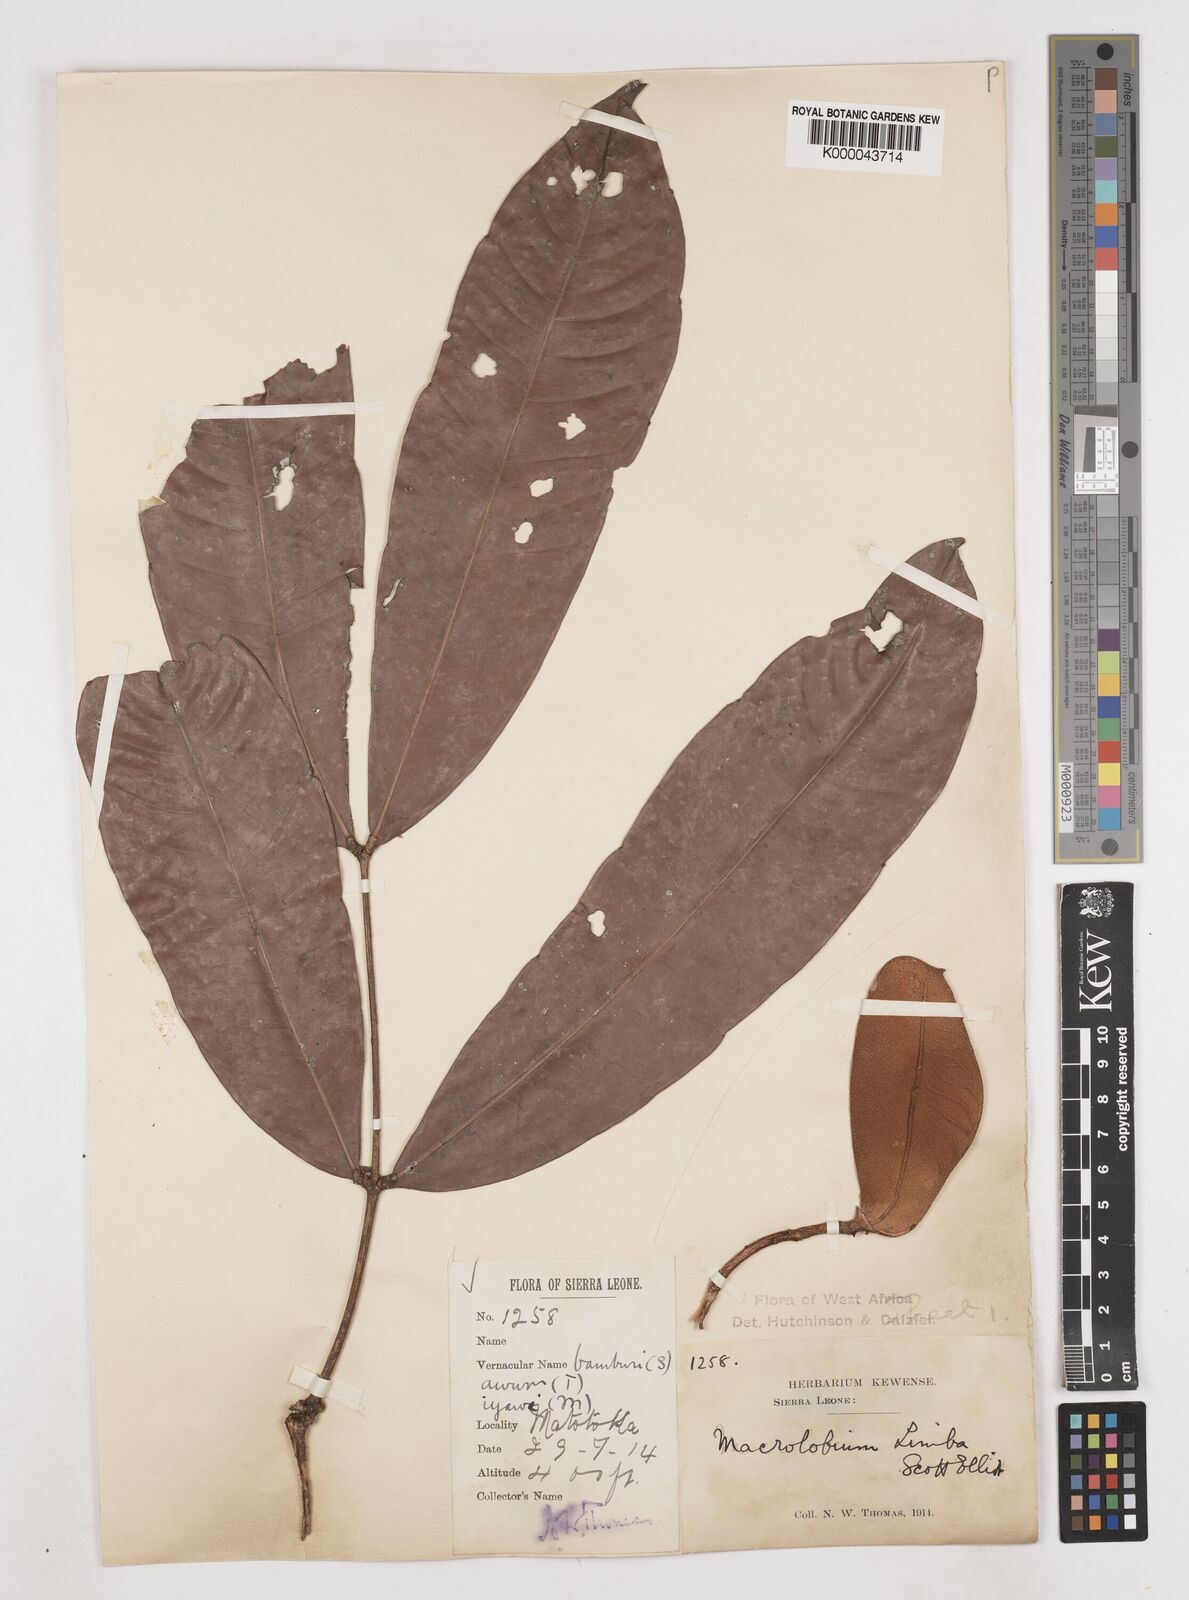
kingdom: Plantae
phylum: Tracheophyta
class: Magnoliopsida
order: Fabales
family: Fabaceae
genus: Gilbertiodendron
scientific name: Gilbertiodendron
